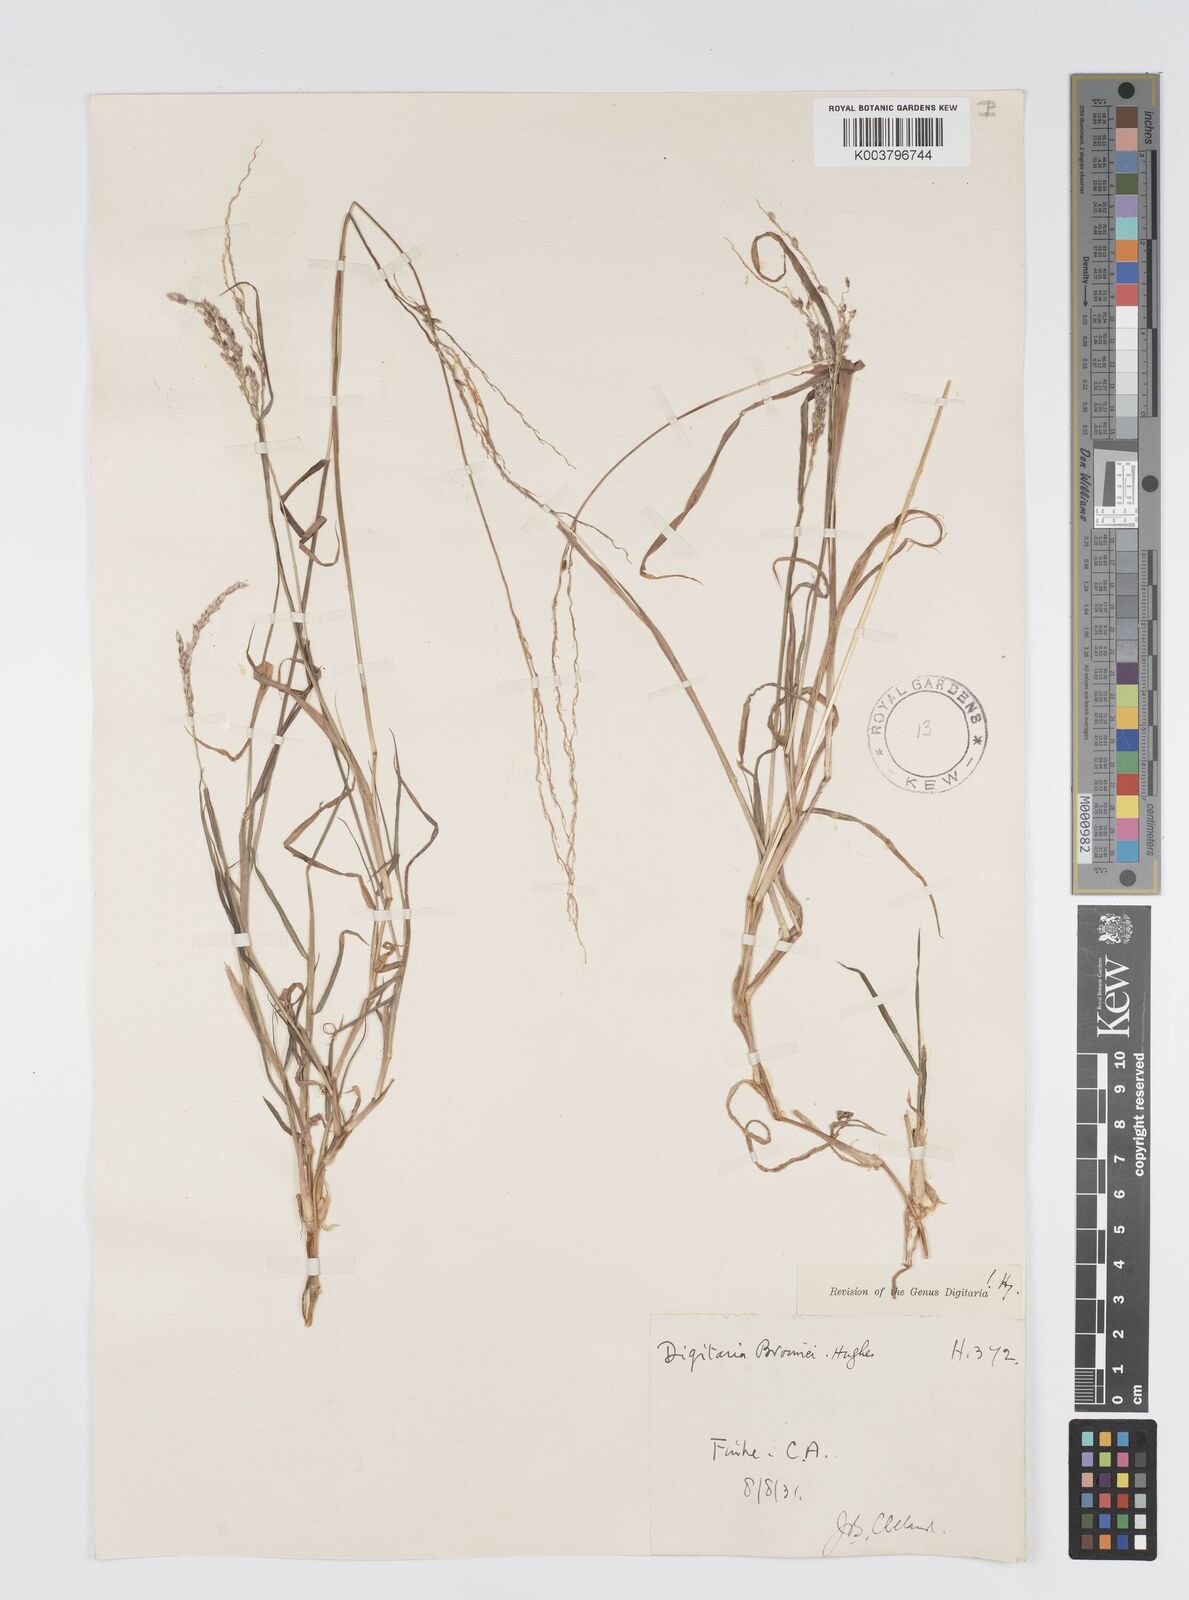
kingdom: Plantae
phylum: Tracheophyta
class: Liliopsida
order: Poales
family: Poaceae
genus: Digitaria
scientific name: Digitaria brownii
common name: Cotton grass
